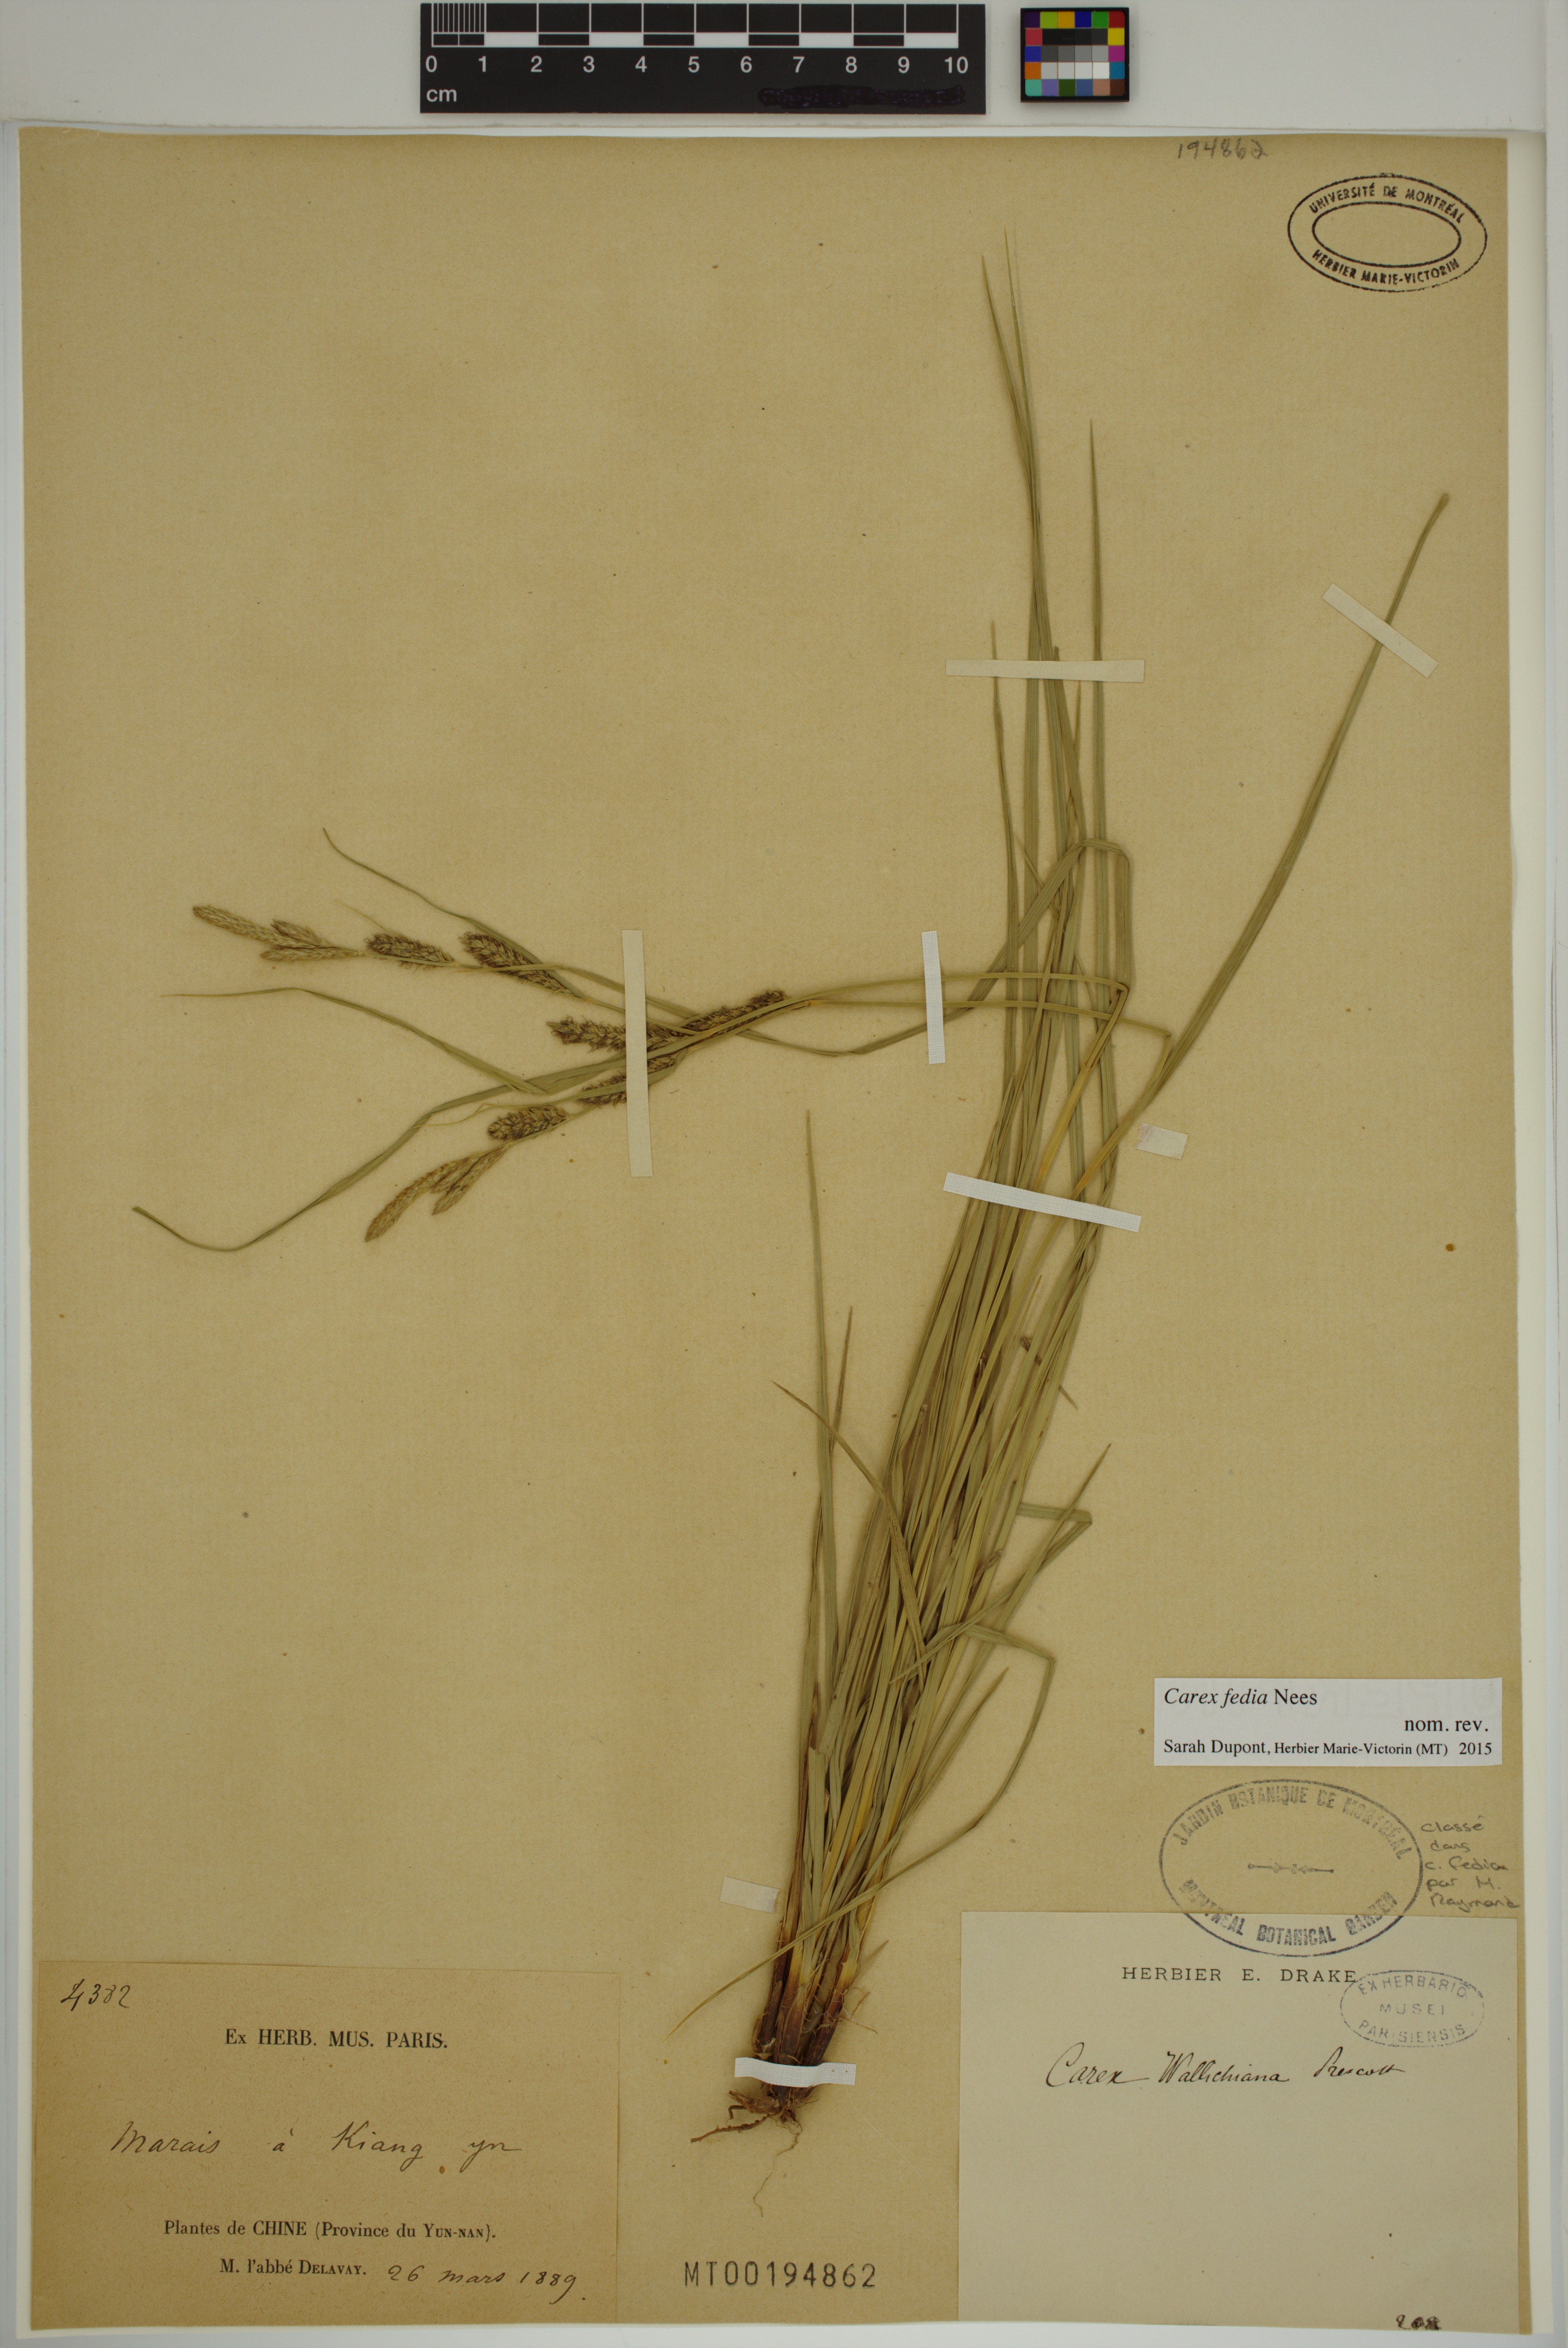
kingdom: Plantae
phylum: Tracheophyta
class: Liliopsida
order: Poales
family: Cyperaceae
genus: Carex
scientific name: Carex fedia
